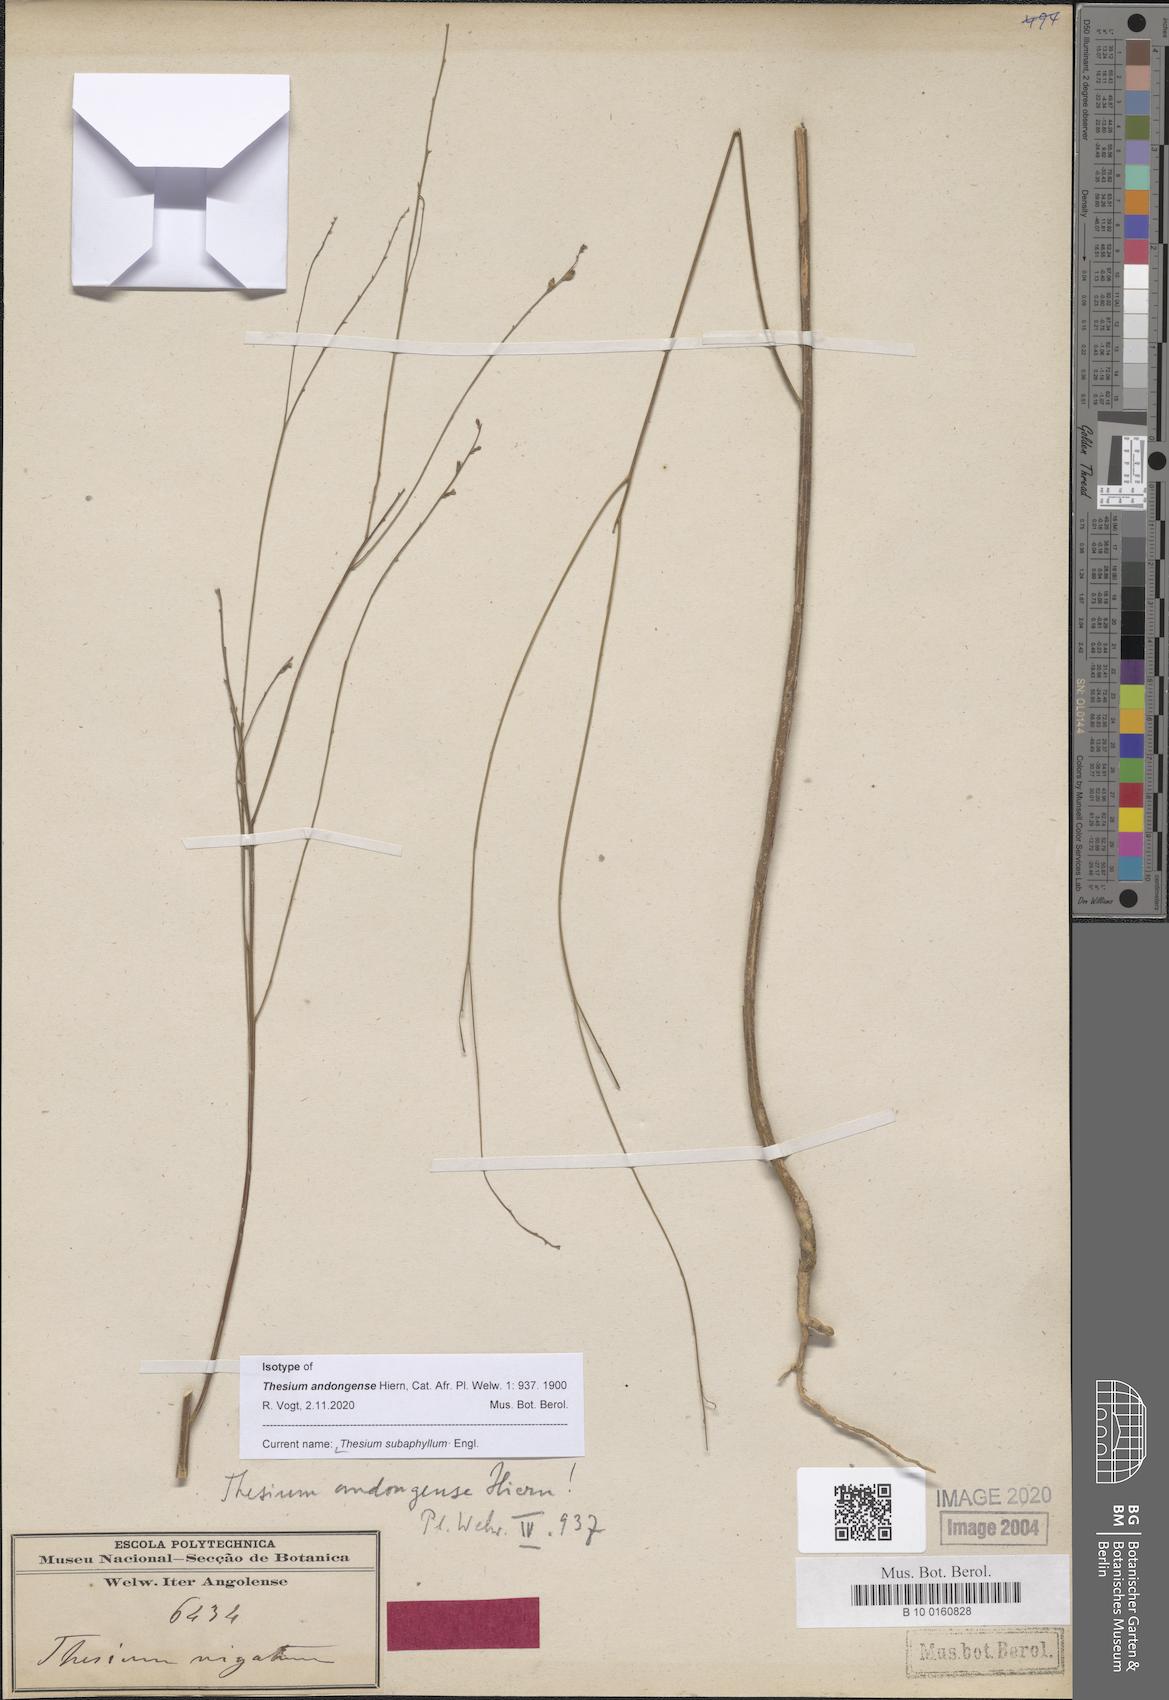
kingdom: Plantae
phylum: Tracheophyta
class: Magnoliopsida
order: Santalales
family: Thesiaceae
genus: Thesium
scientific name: Thesium subaphyllum
